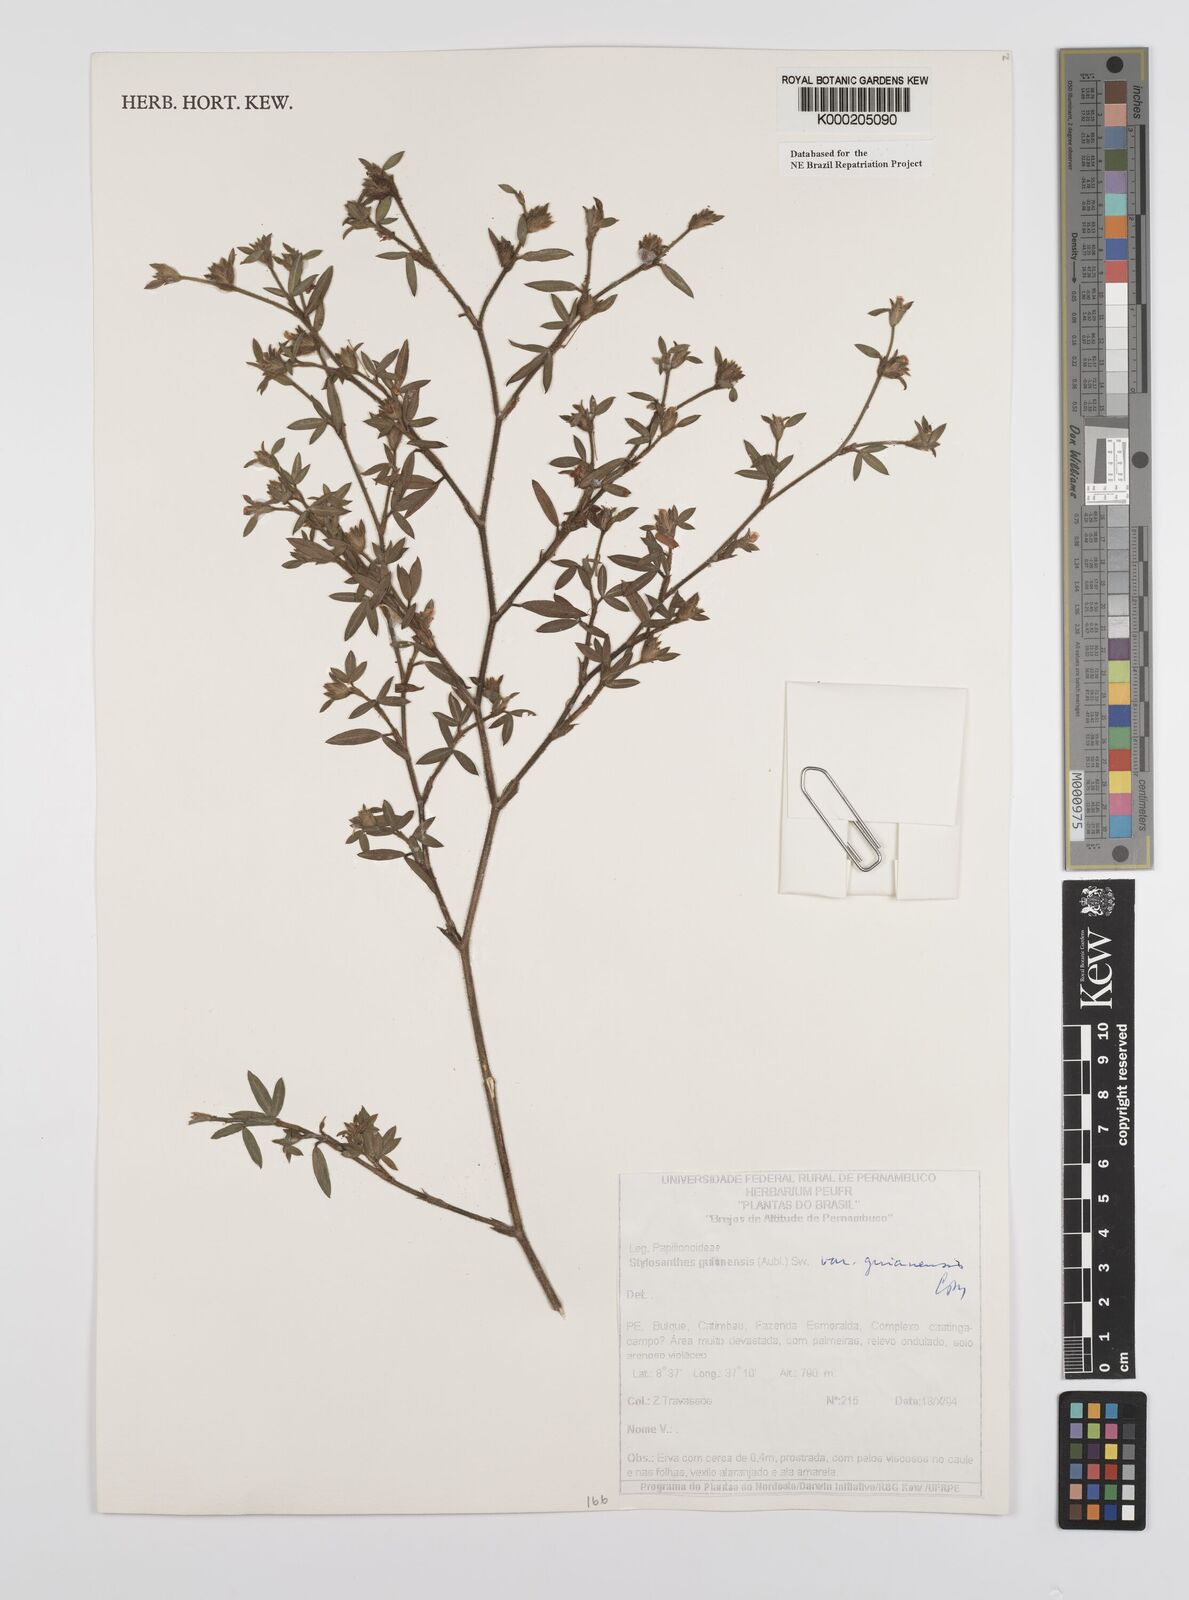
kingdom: Plantae
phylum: Tracheophyta
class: Magnoliopsida
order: Fabales
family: Fabaceae
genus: Stylosanthes
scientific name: Stylosanthes guianensis
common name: Pencil flower
